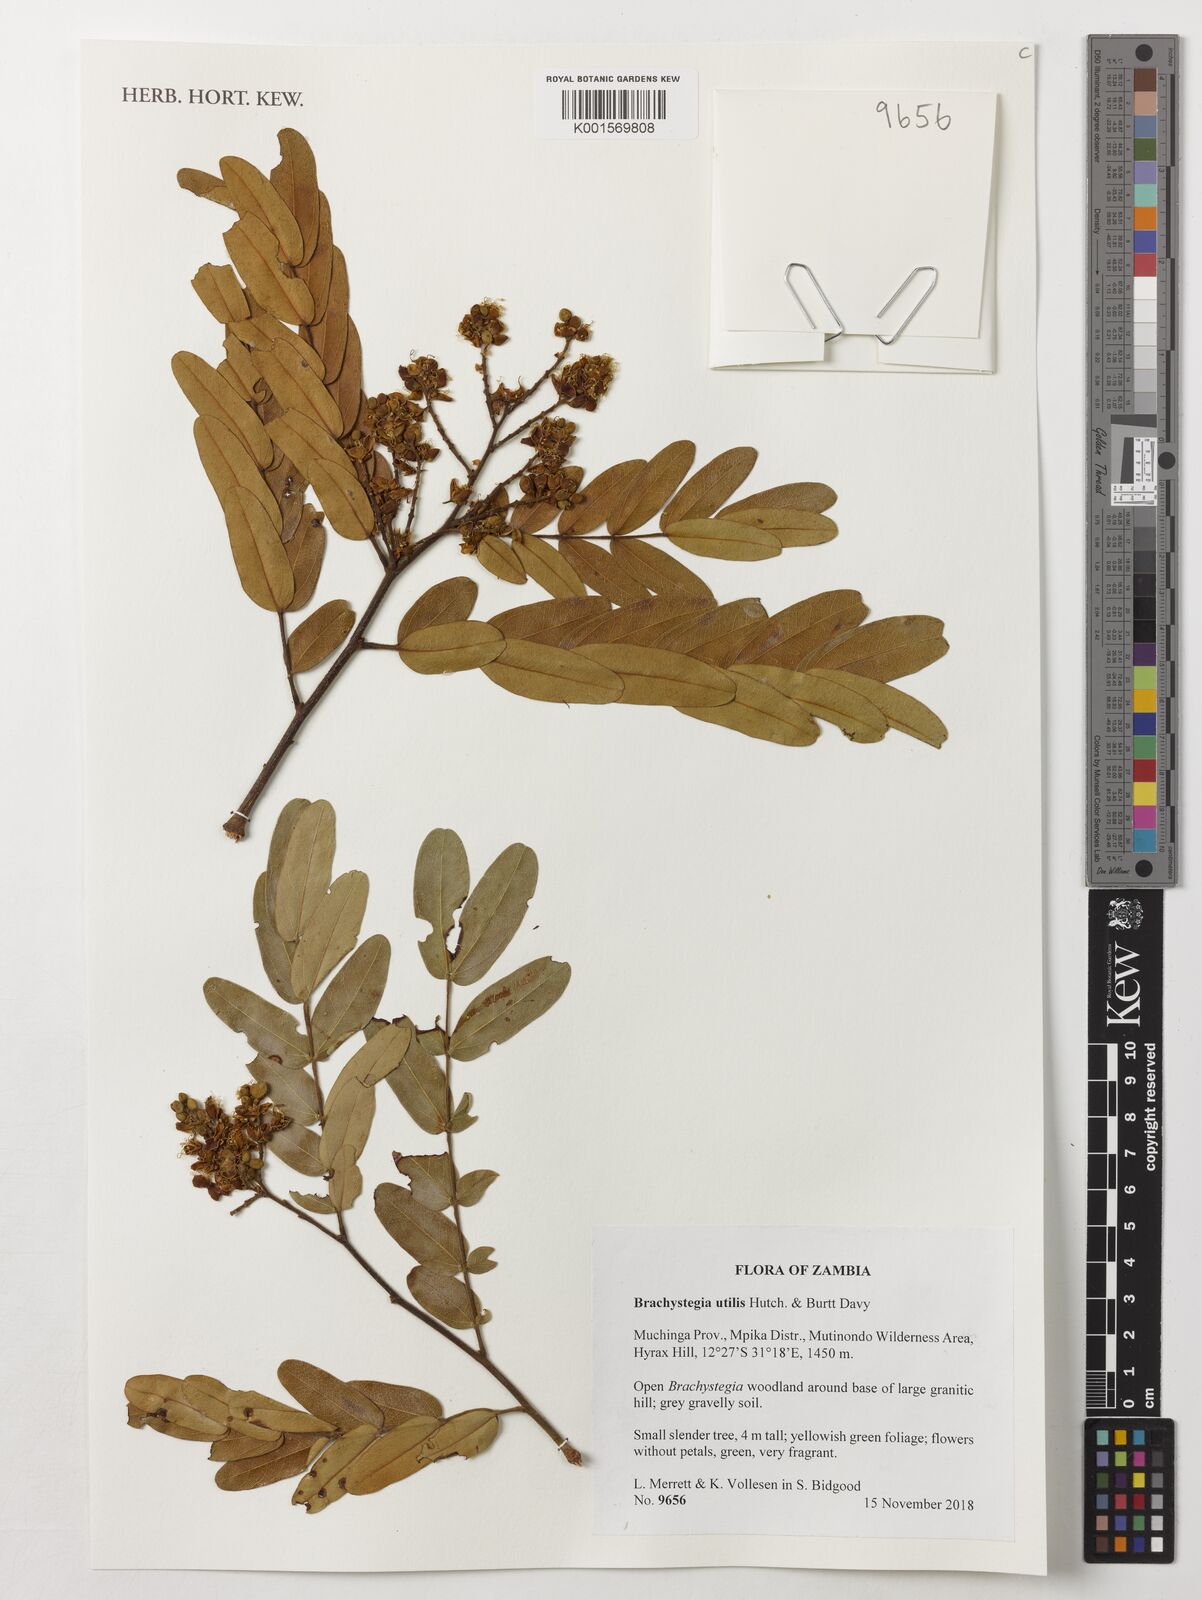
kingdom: Plantae
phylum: Tracheophyta
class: Magnoliopsida
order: Fabales
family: Fabaceae
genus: Brachystegia
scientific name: Brachystegia utilis
